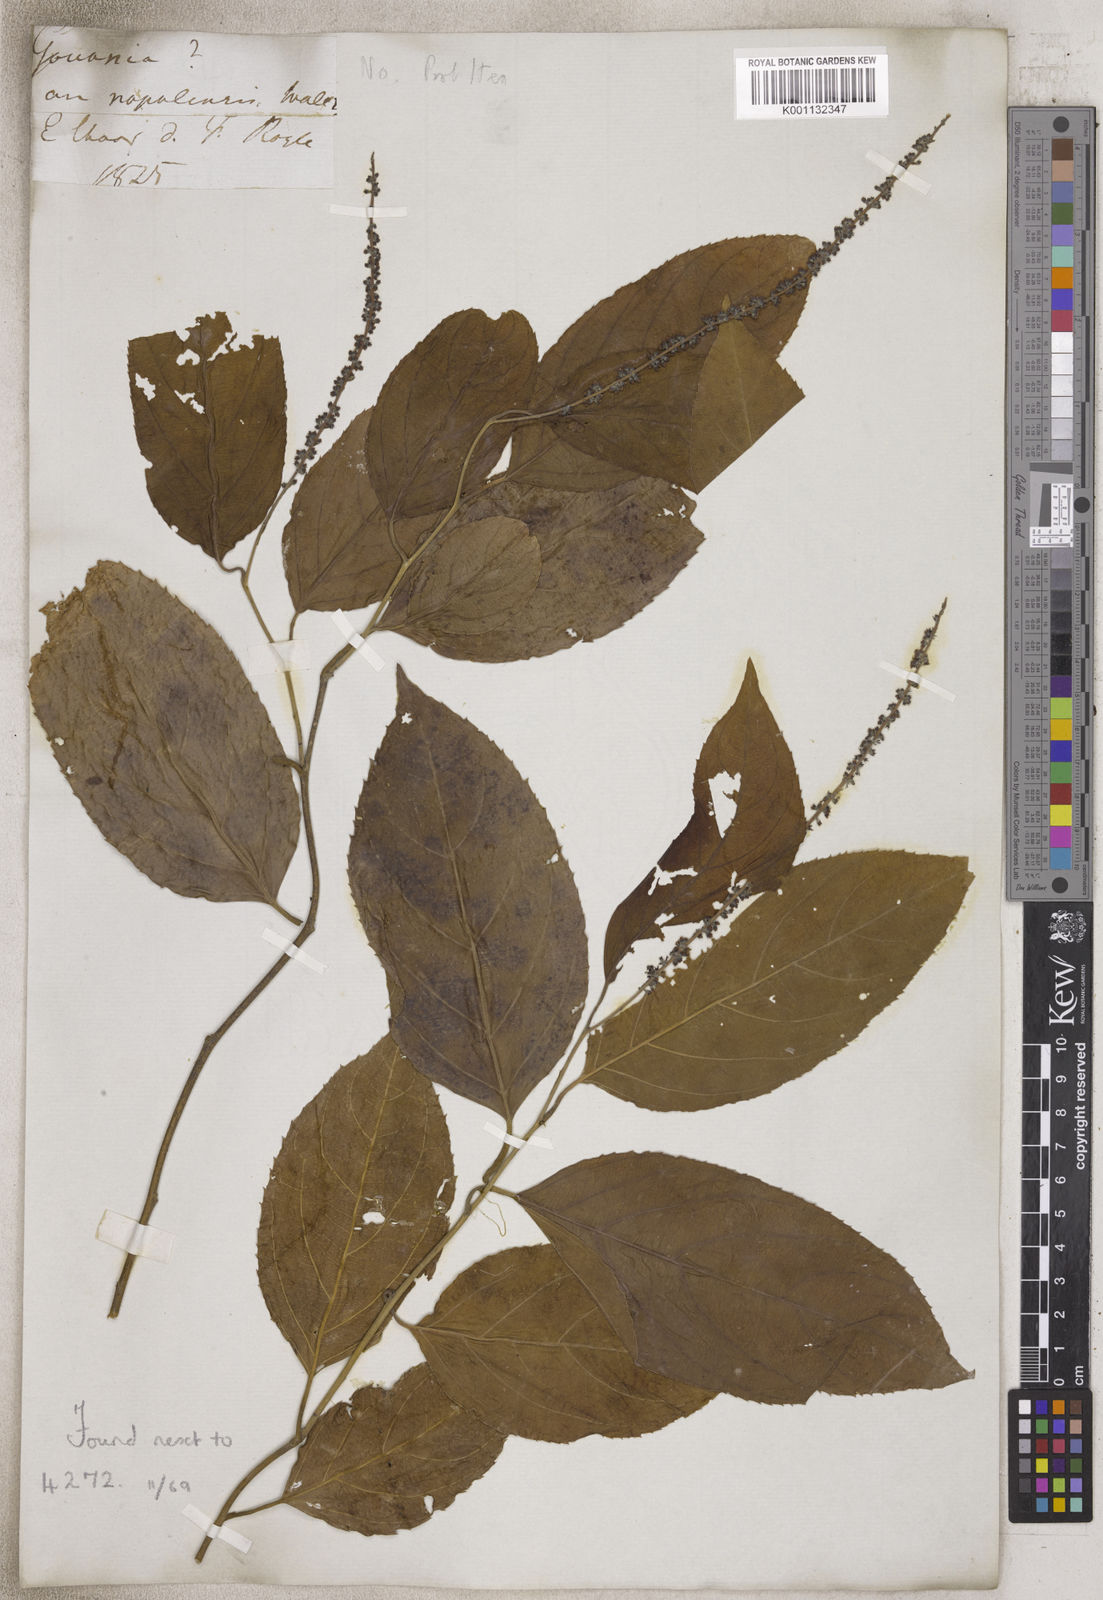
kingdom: Plantae
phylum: Tracheophyta
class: Magnoliopsida
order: Saxifragales
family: Iteaceae
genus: Itea
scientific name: Itea
